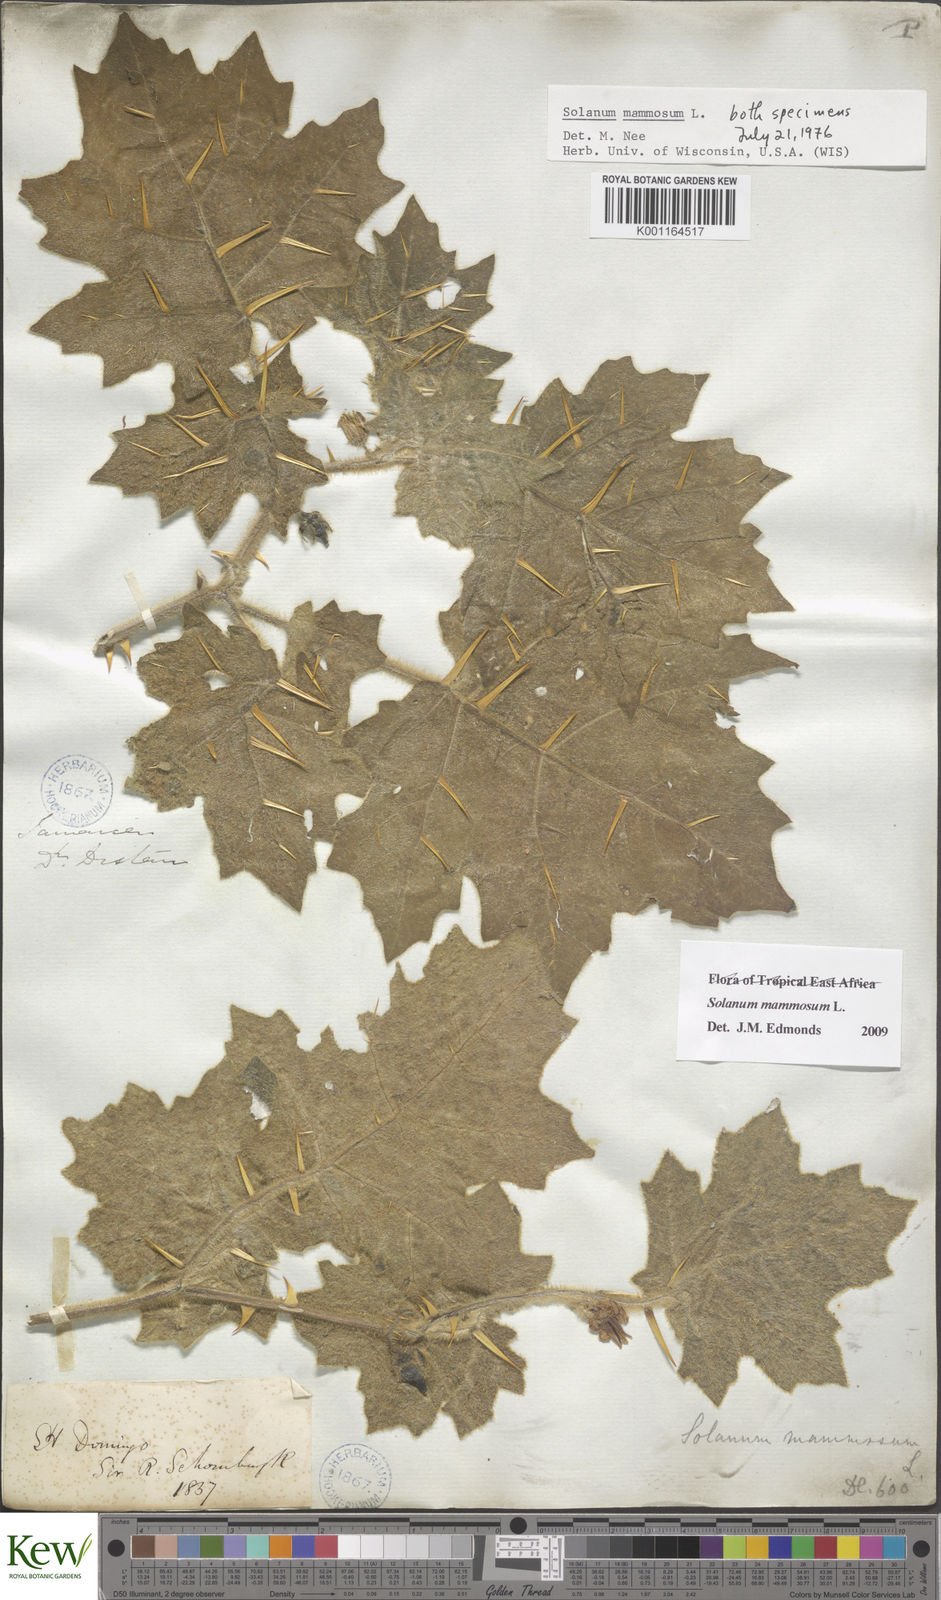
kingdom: Plantae
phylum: Tracheophyta
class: Magnoliopsida
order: Solanales
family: Solanaceae
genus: Solanum
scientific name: Solanum mammosum
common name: Nipple fruit
